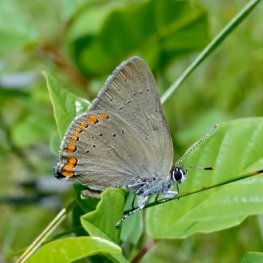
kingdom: Animalia
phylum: Arthropoda
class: Insecta
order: Lepidoptera
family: Lycaenidae
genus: Harkenclenus
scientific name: Harkenclenus titus
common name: Coral Hairstreak
